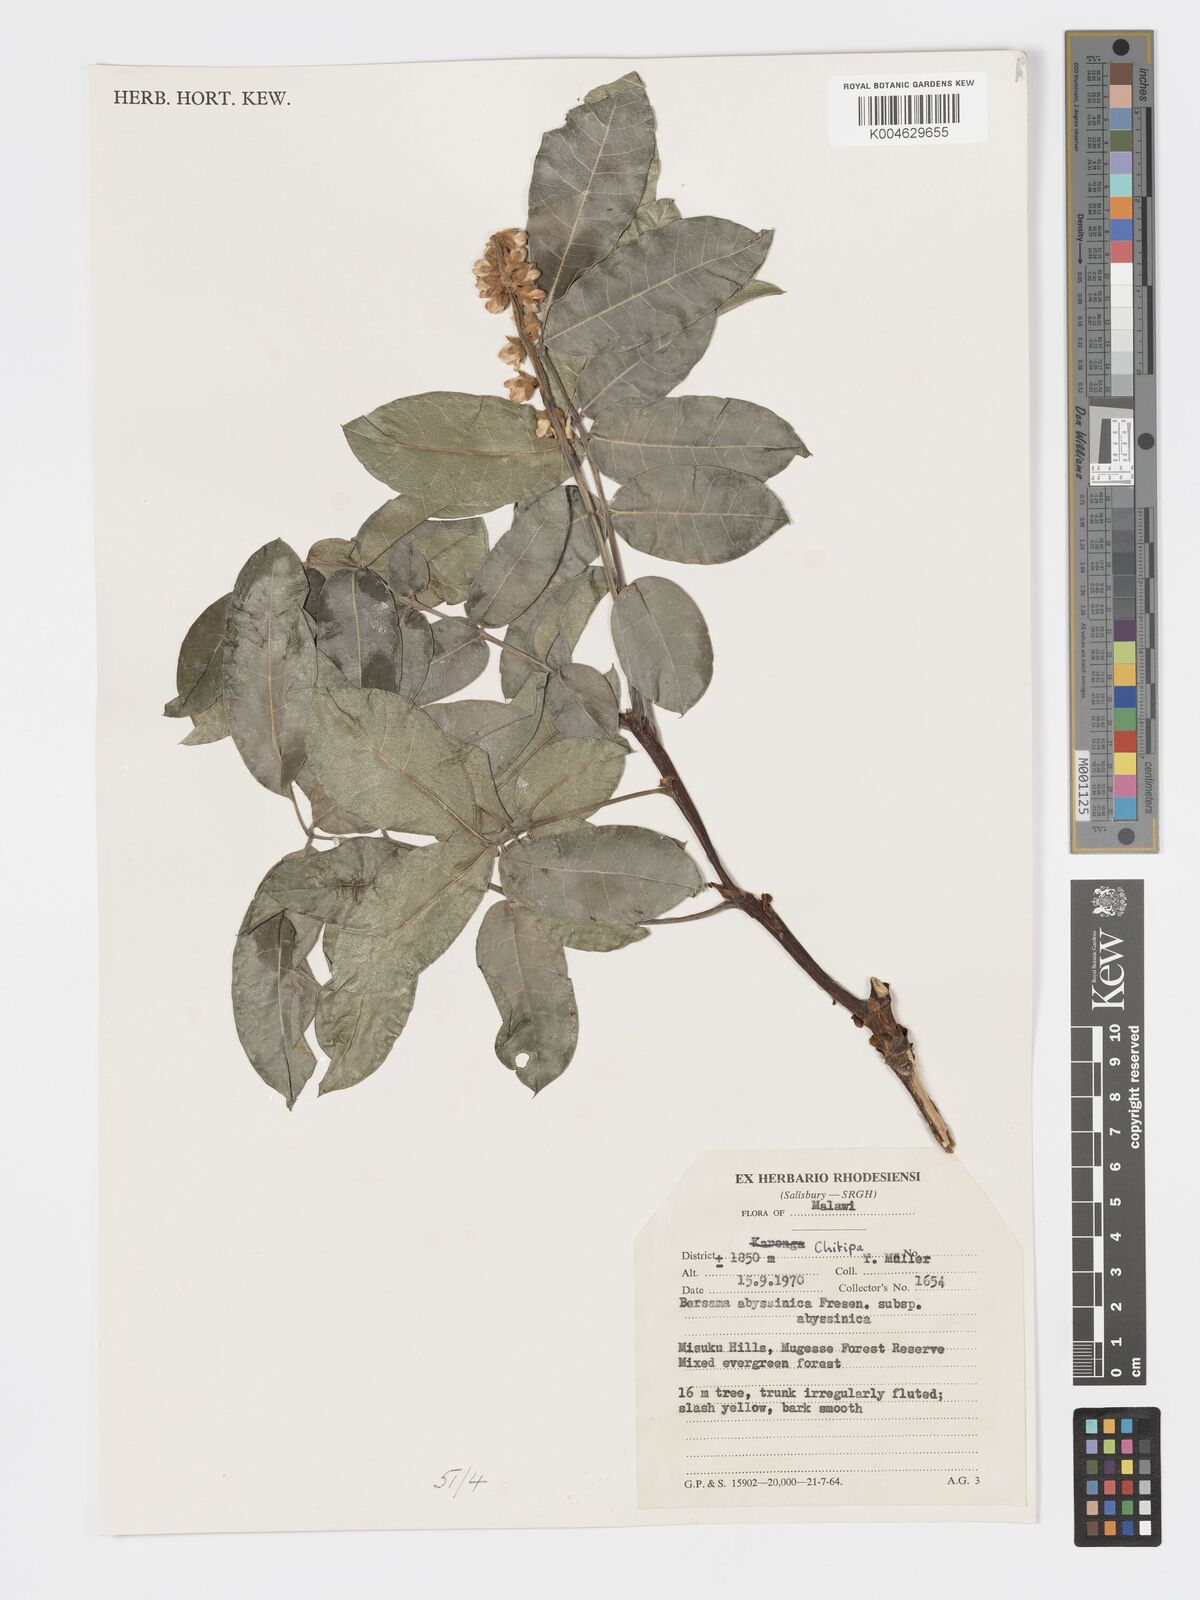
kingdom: Plantae
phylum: Tracheophyta
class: Magnoliopsida
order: Geraniales
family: Francoaceae
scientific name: Francoaceae
